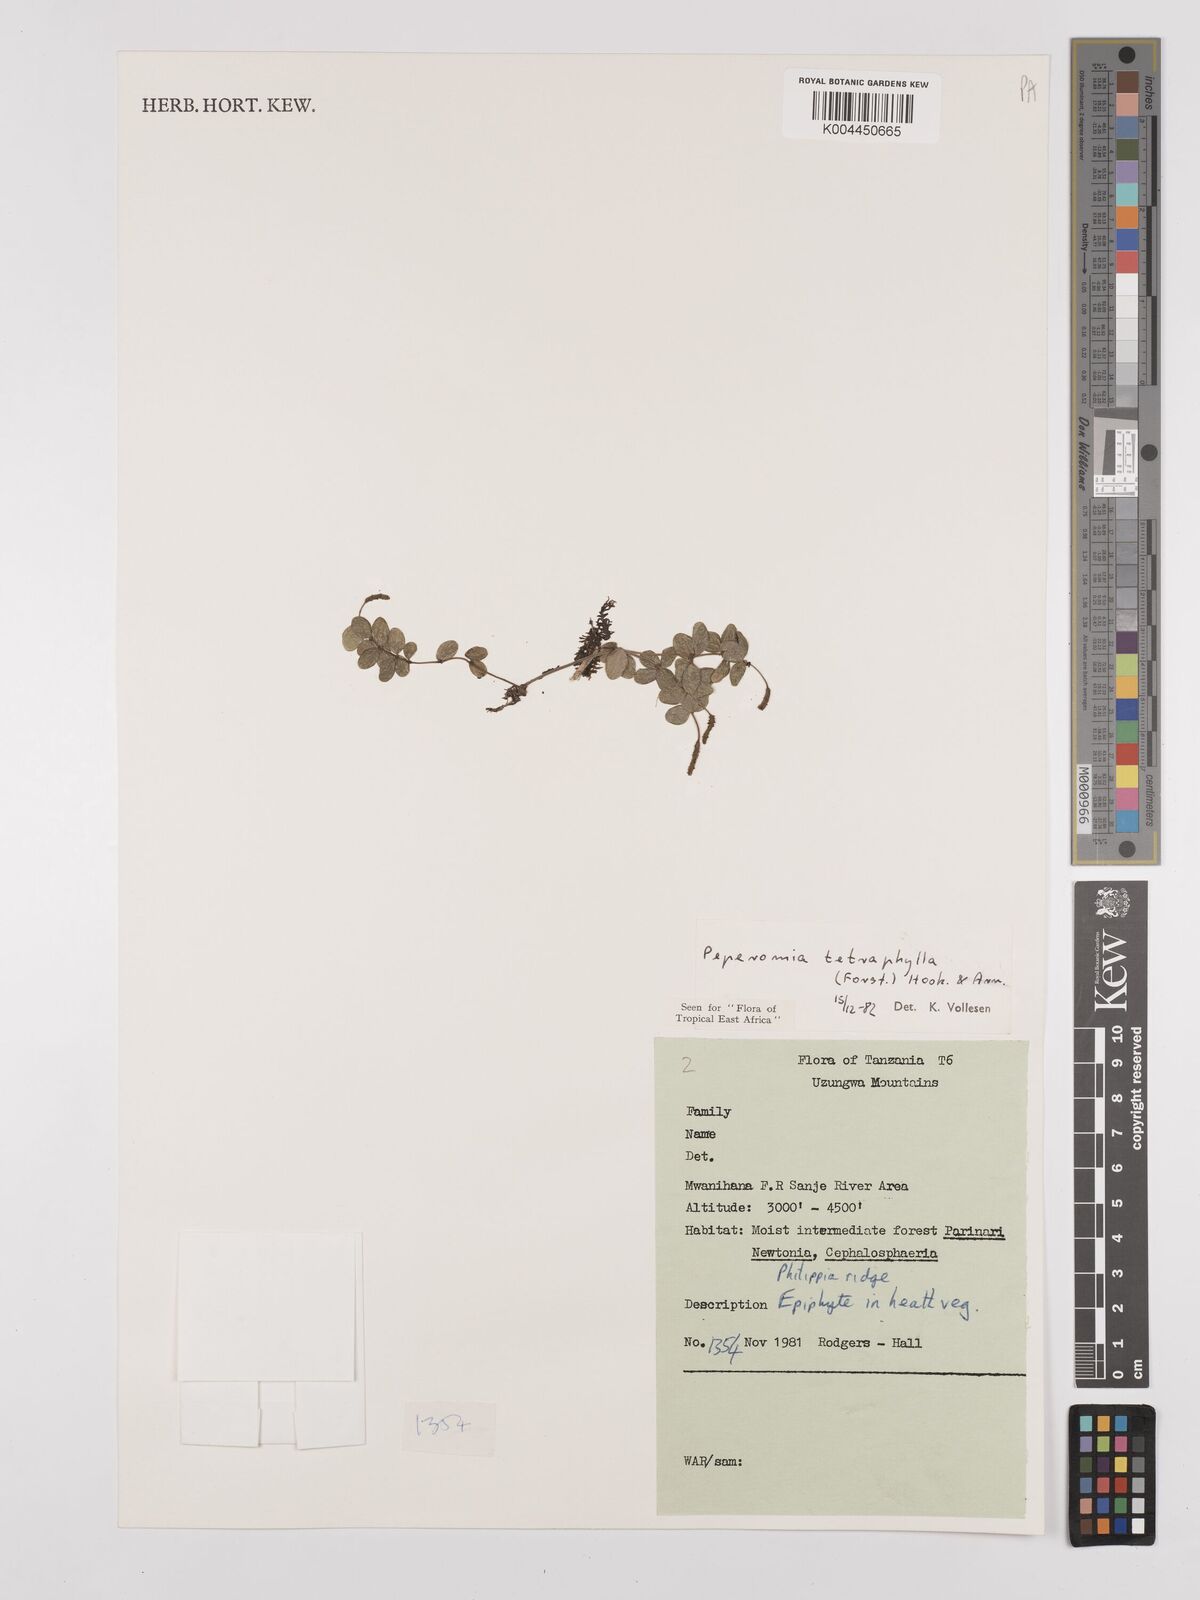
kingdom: Plantae
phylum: Tracheophyta
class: Magnoliopsida
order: Piperales
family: Piperaceae
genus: Peperomia
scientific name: Peperomia tetraphylla
